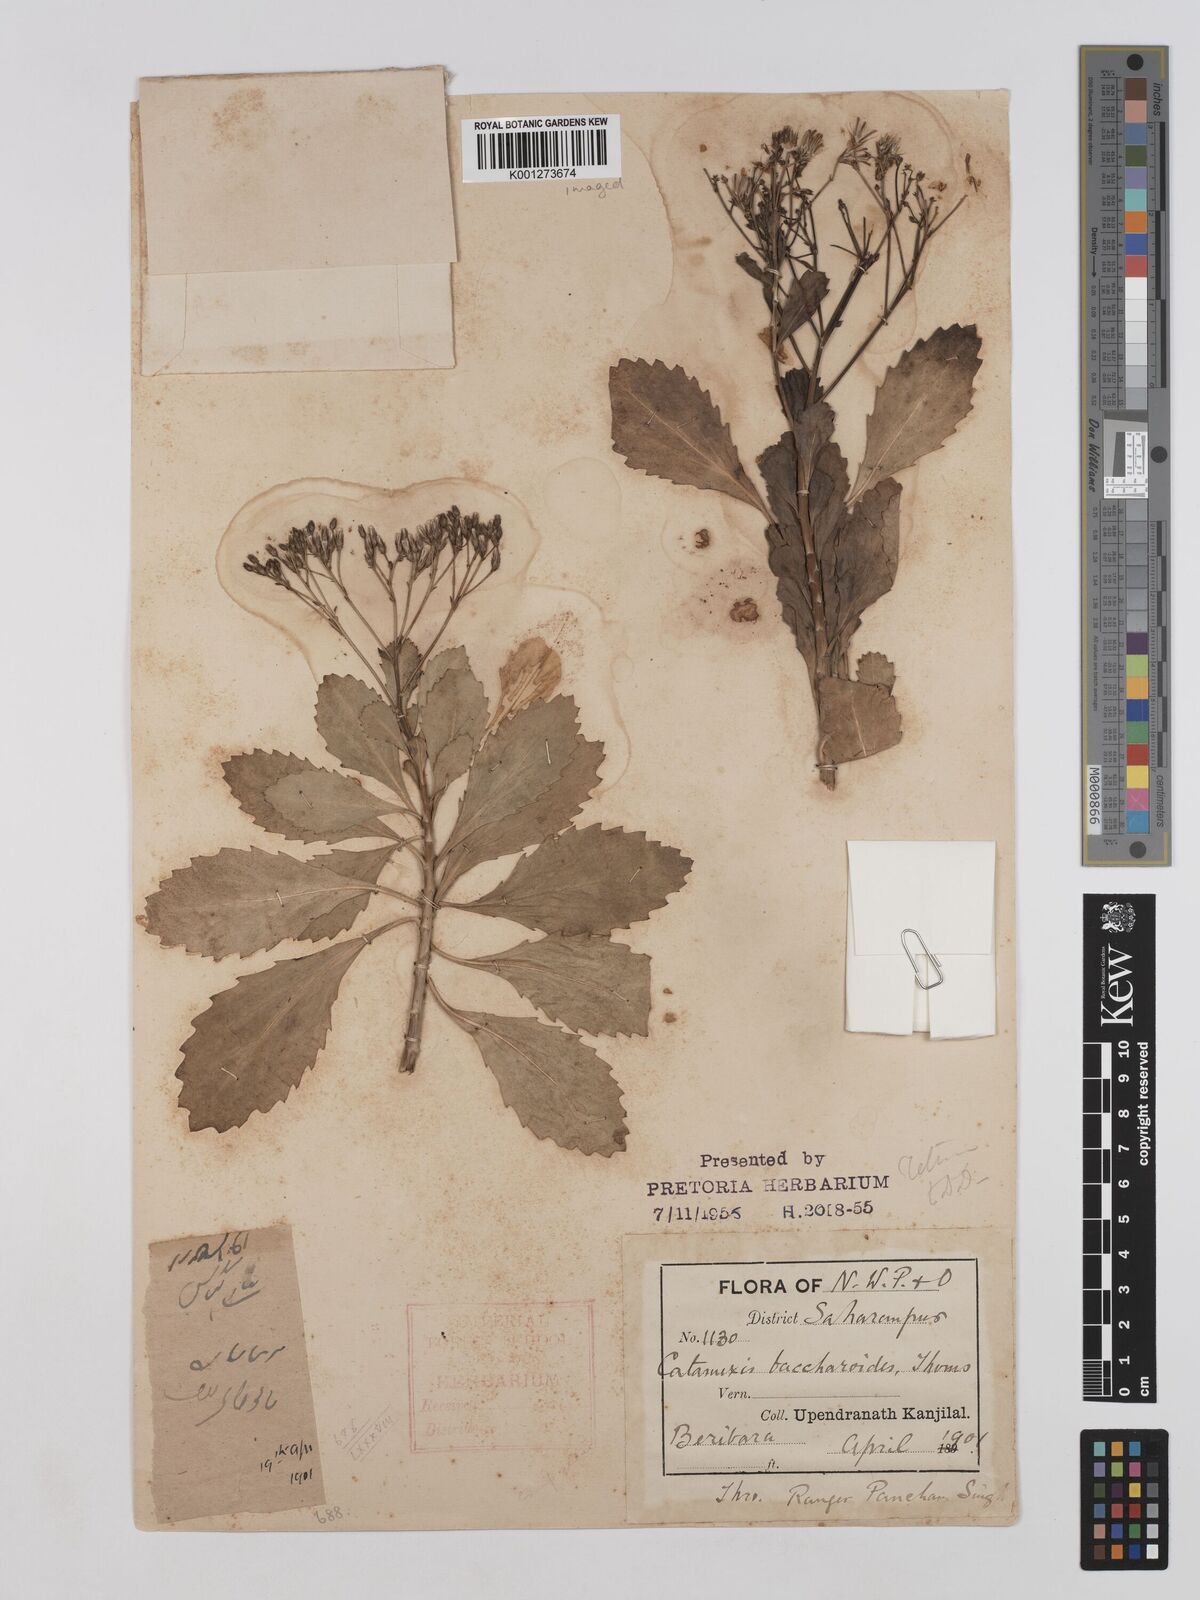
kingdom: Plantae
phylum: Tracheophyta
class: Magnoliopsida
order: Asterales
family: Asteraceae
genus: Catamixis
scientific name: Catamixis baccharoides
